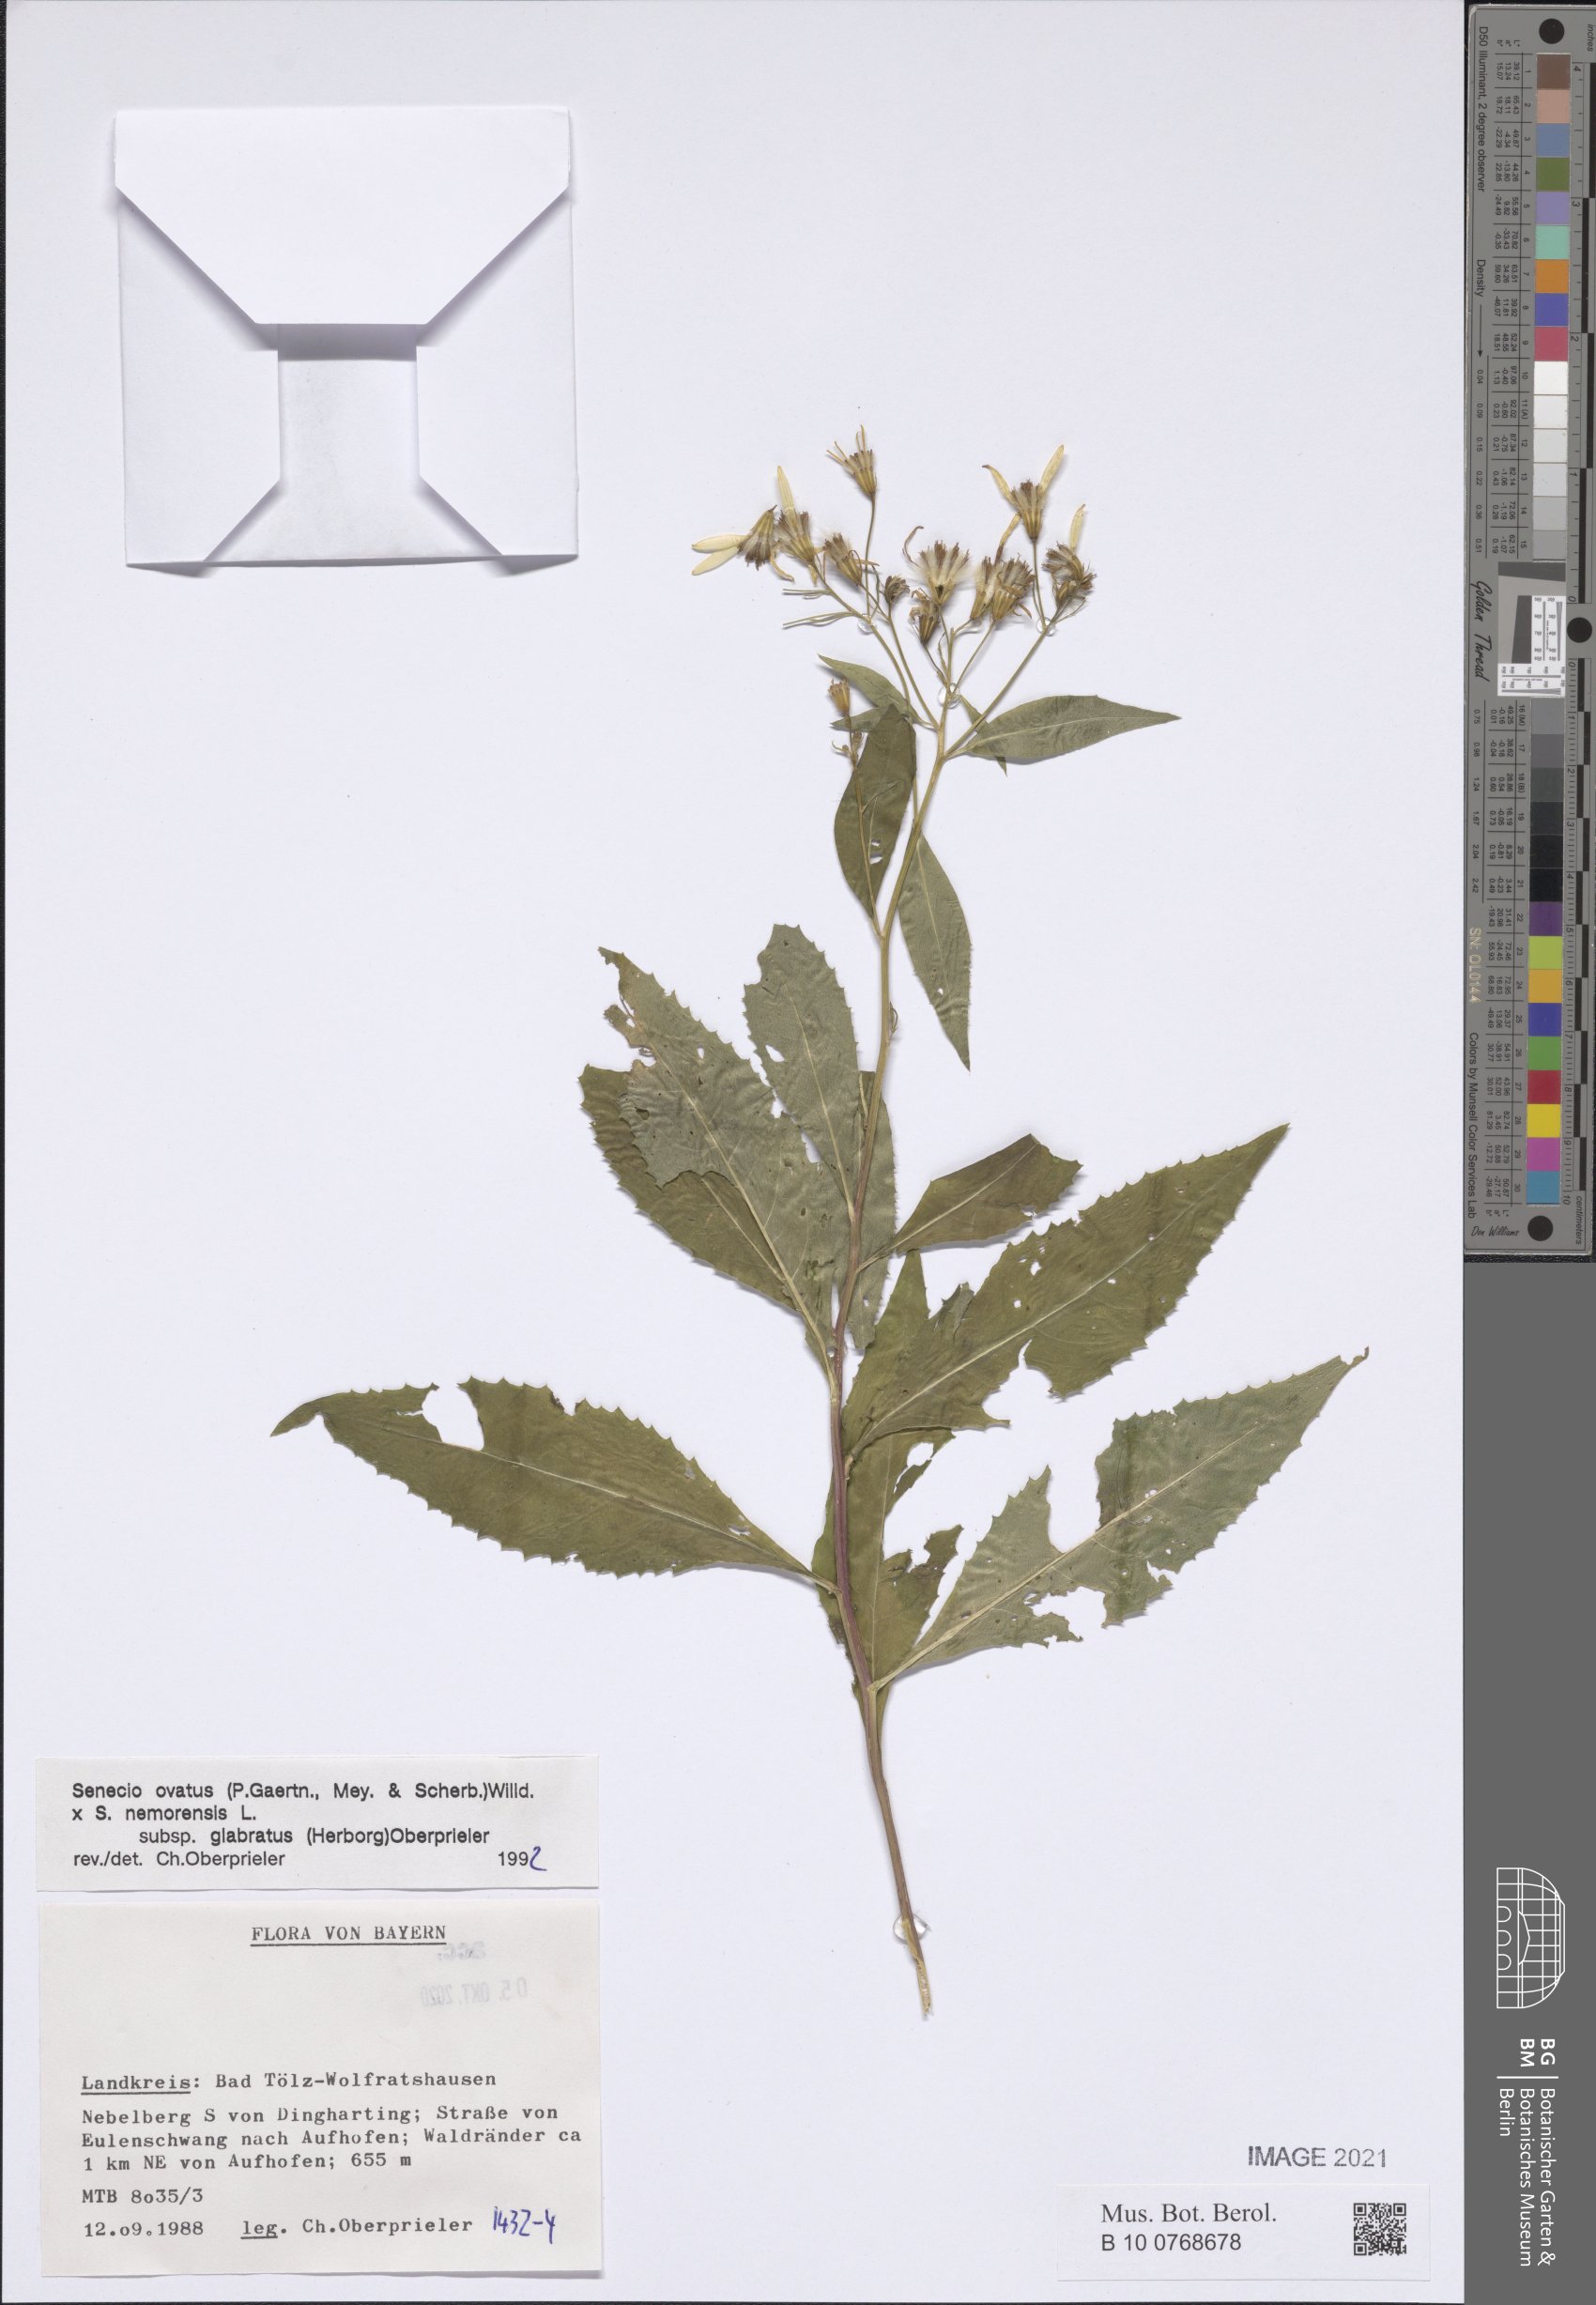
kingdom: Plantae
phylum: Tracheophyta
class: Magnoliopsida
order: Asterales
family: Asteraceae
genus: Senecio
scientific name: Senecio ovatus
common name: Wood ragwort
